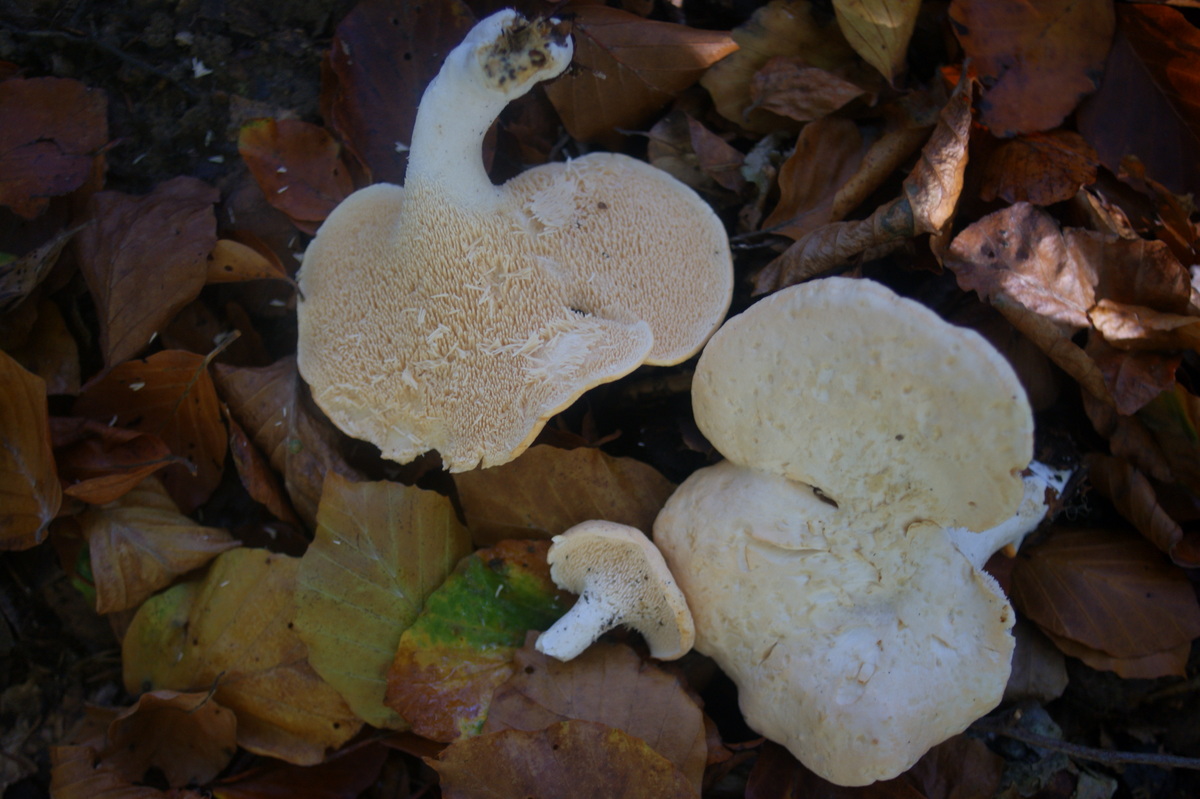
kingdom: Fungi
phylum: Basidiomycota
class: Agaricomycetes
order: Cantharellales
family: Hydnaceae
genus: Hydnum
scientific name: Hydnum repandum
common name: almindelig pigsvamp
